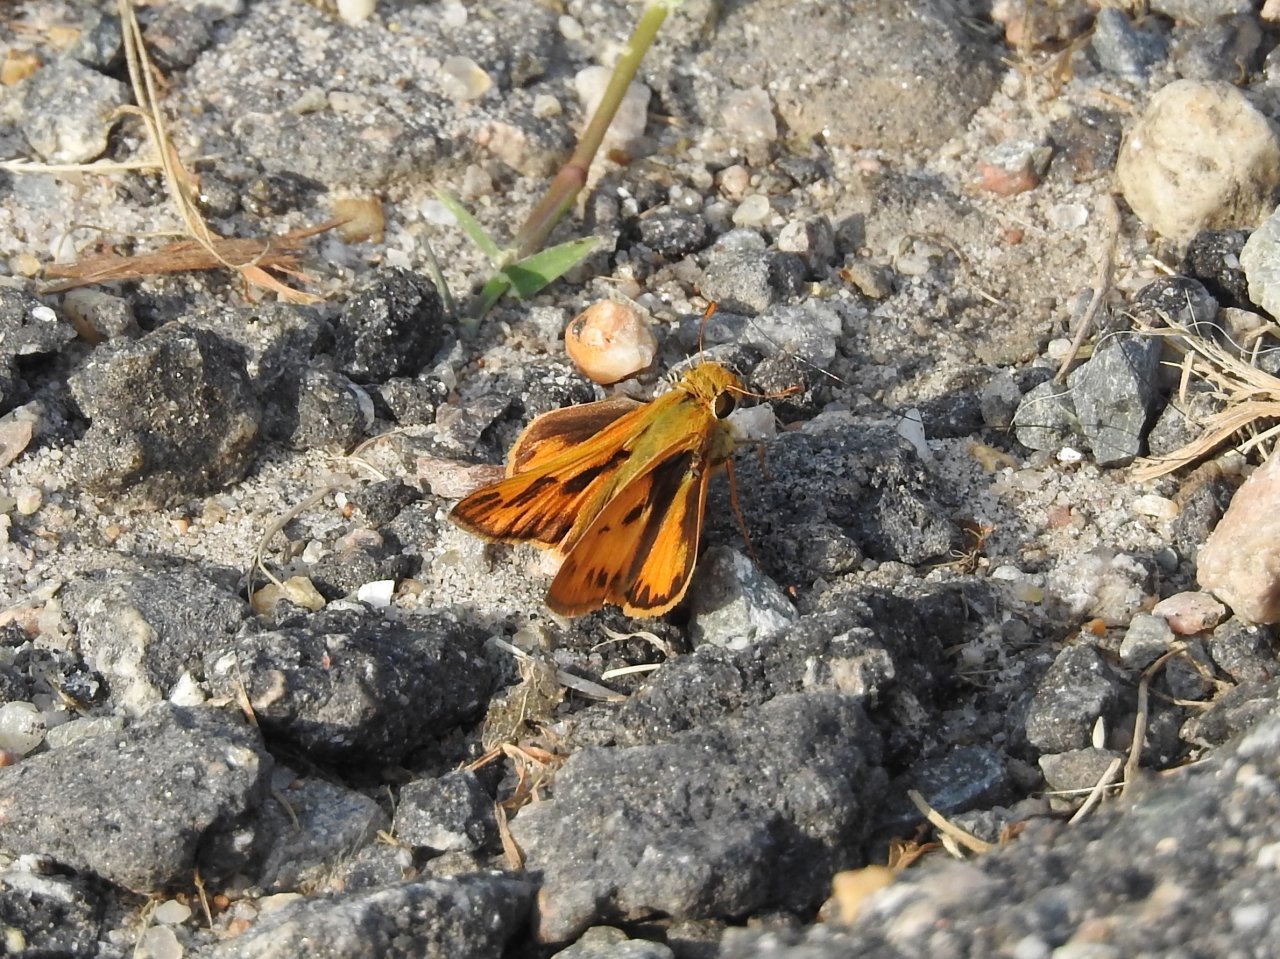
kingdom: Animalia
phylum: Arthropoda
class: Insecta
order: Lepidoptera
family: Hesperiidae
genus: Hylephila
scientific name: Hylephila phyleus
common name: Fiery Skipper
